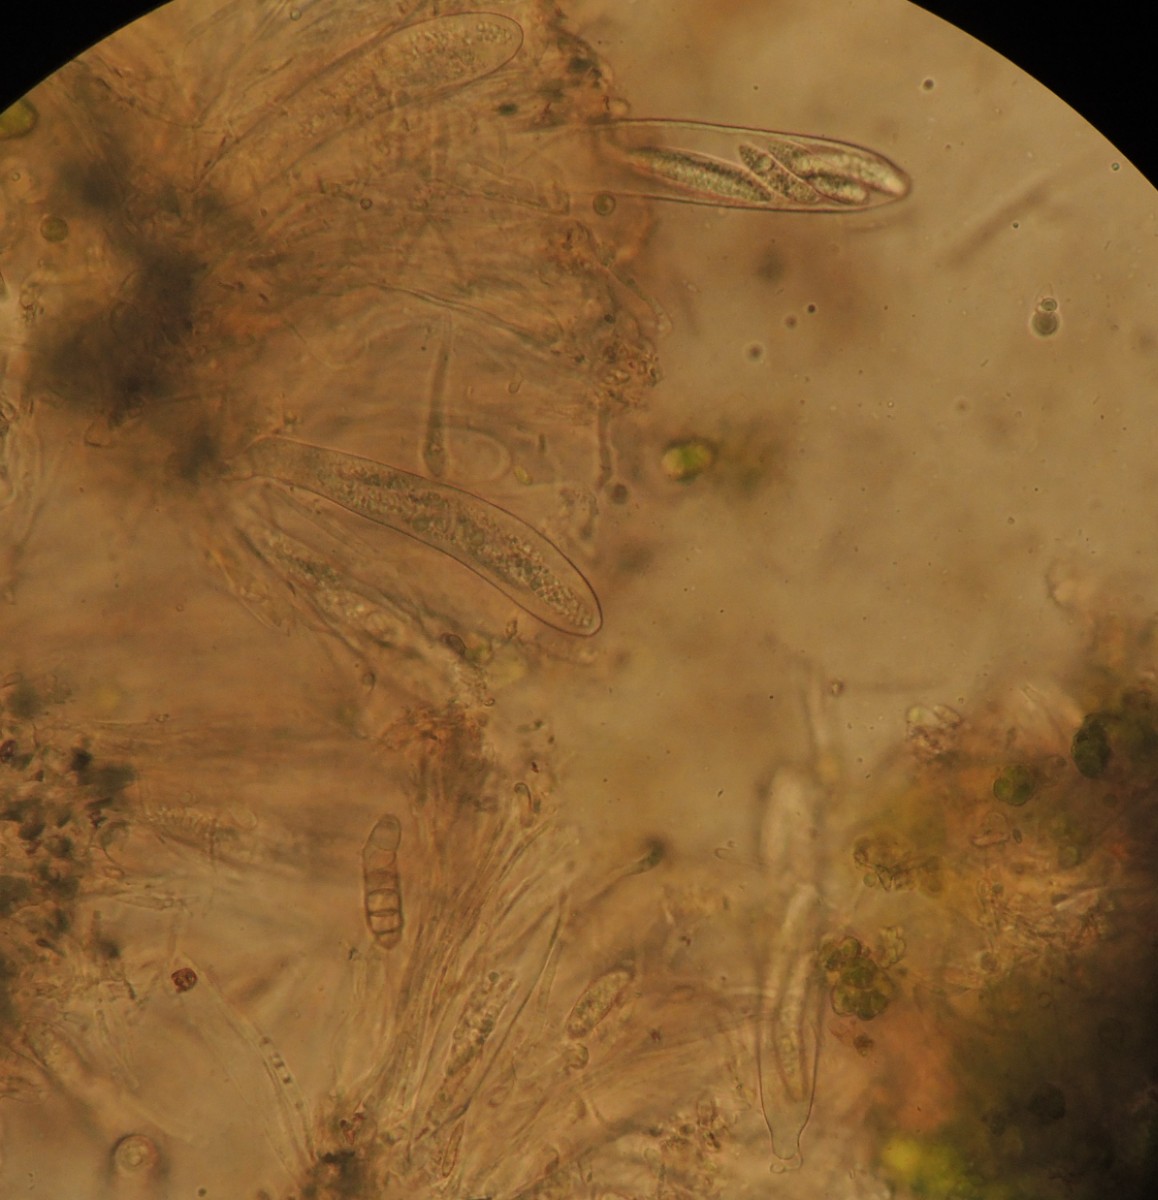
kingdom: Fungi
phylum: Ascomycota
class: Leotiomycetes
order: Helotiales
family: Dermateaceae
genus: Pezicula
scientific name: Pezicula cinnamomea
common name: kanel-klyngeskive
